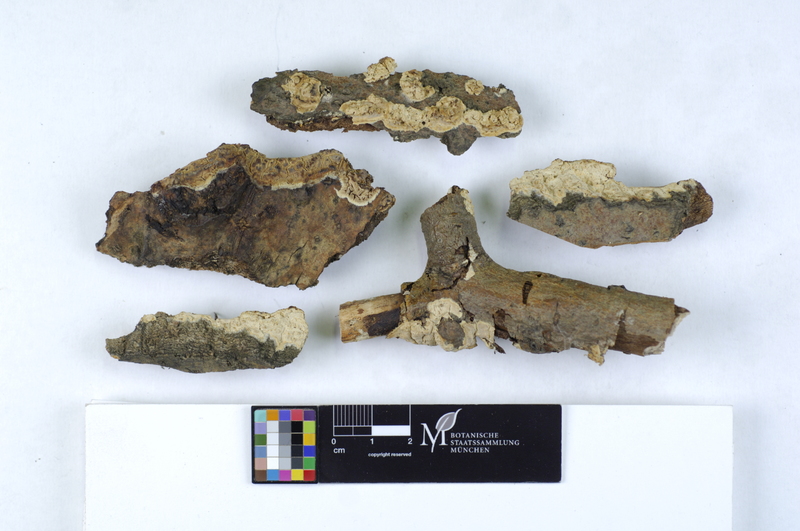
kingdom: Plantae
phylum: Tracheophyta
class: Magnoliopsida
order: Malpighiales
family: Salicaceae
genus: Populus
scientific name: Populus
